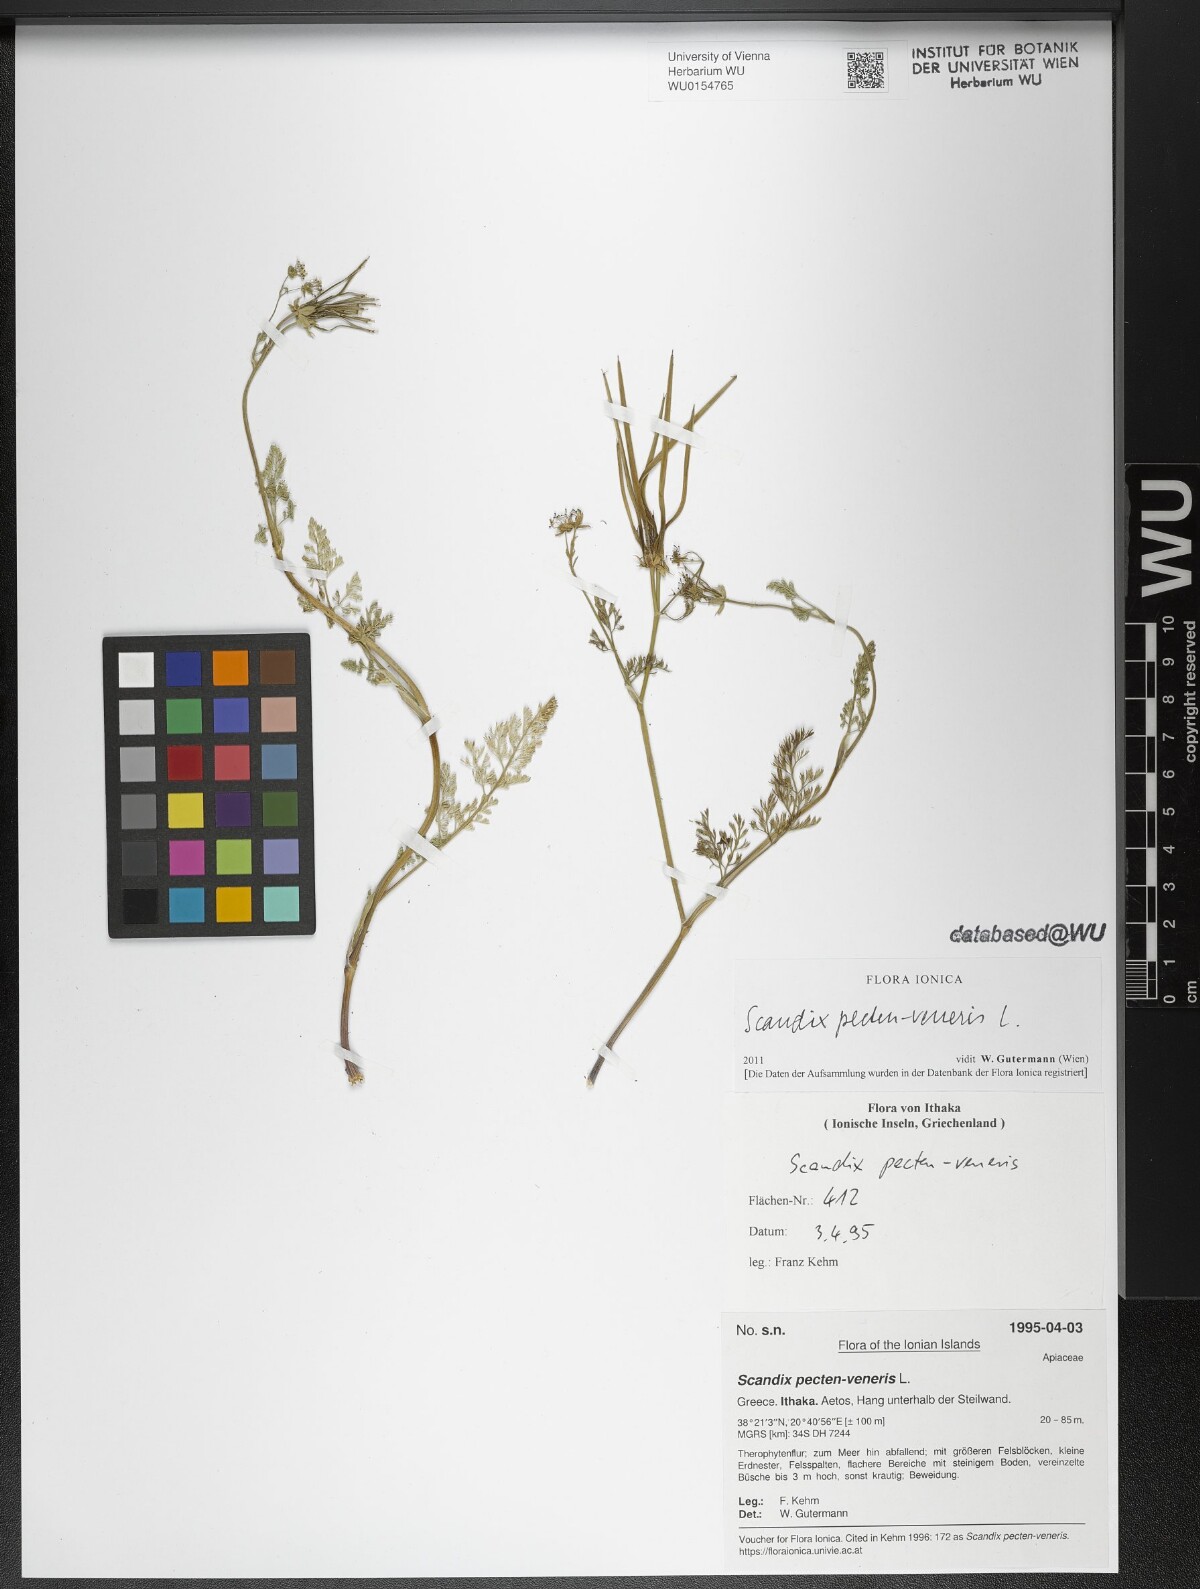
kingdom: Plantae
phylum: Tracheophyta
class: Magnoliopsida
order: Apiales
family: Apiaceae
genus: Scandix
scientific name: Scandix pecten-veneris
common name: Shepherd's-needle
